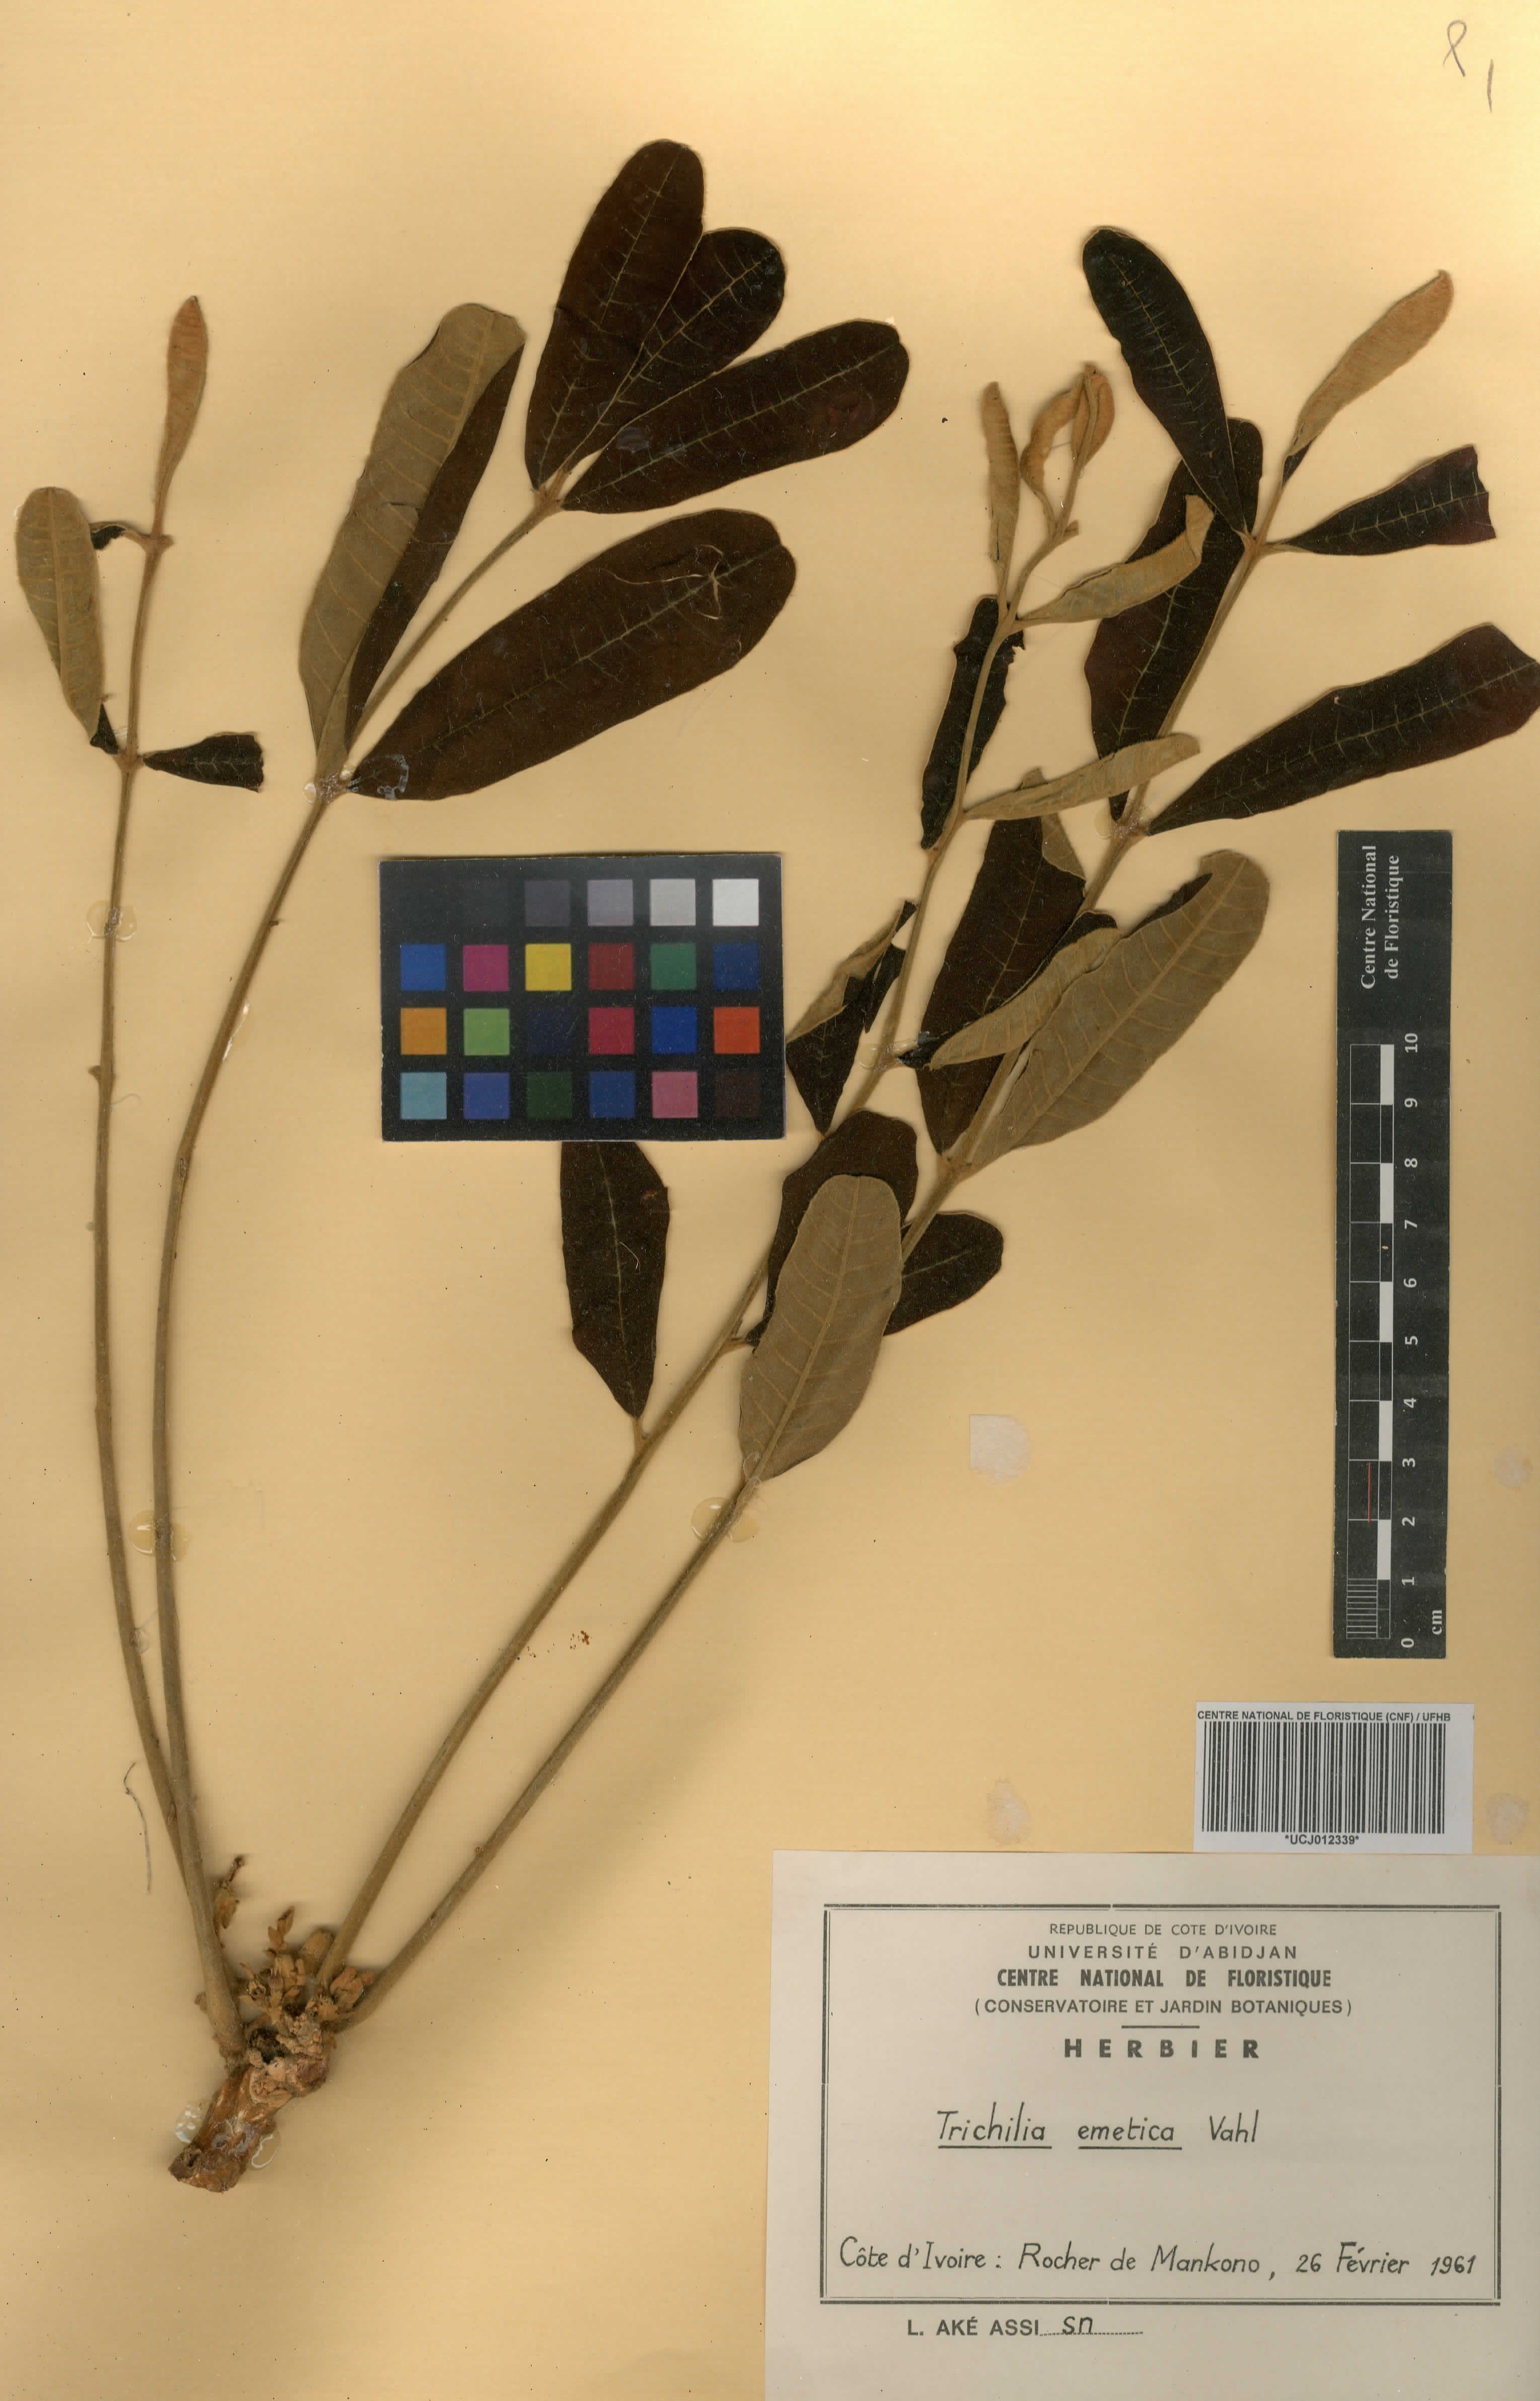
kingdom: Plantae
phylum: Tracheophyta
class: Magnoliopsida
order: Sapindales
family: Meliaceae
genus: Trichilia
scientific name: Trichilia emetica
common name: Christmas-bells
